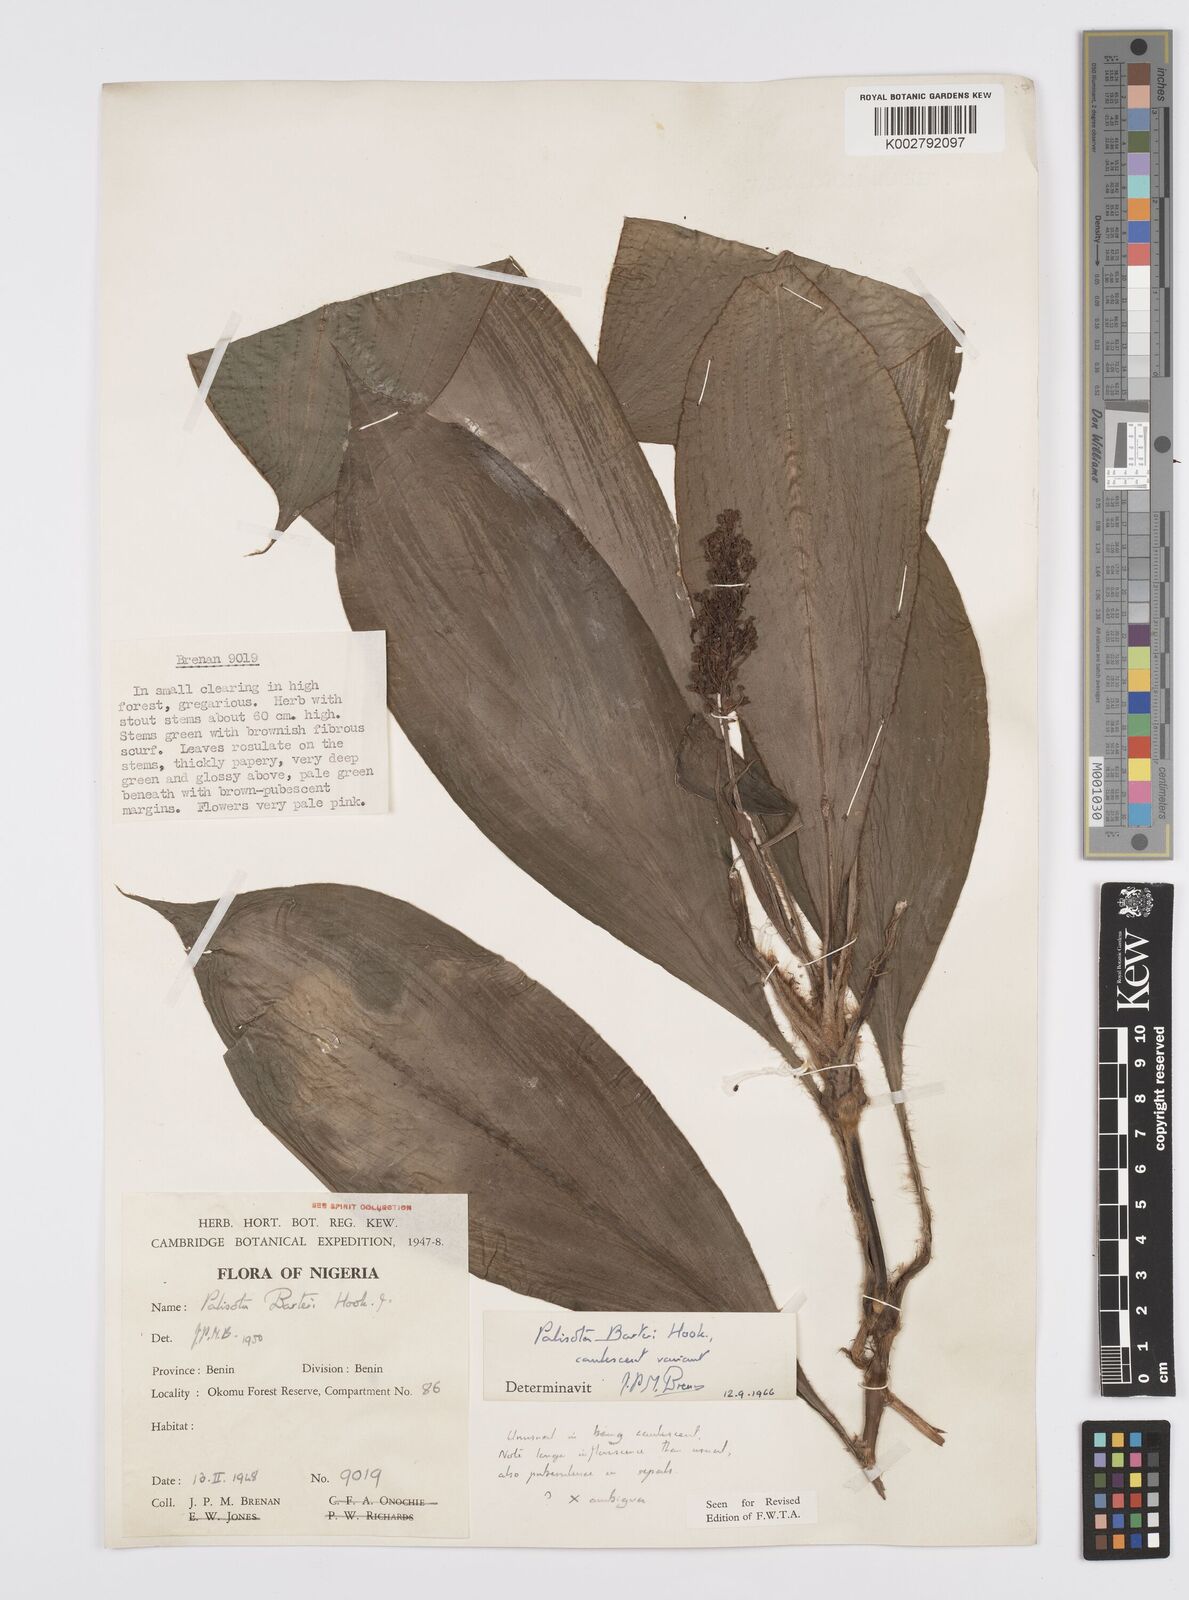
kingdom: Plantae
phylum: Tracheophyta
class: Liliopsida
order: Commelinales
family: Commelinaceae
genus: Palisota
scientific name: Palisota barteri
